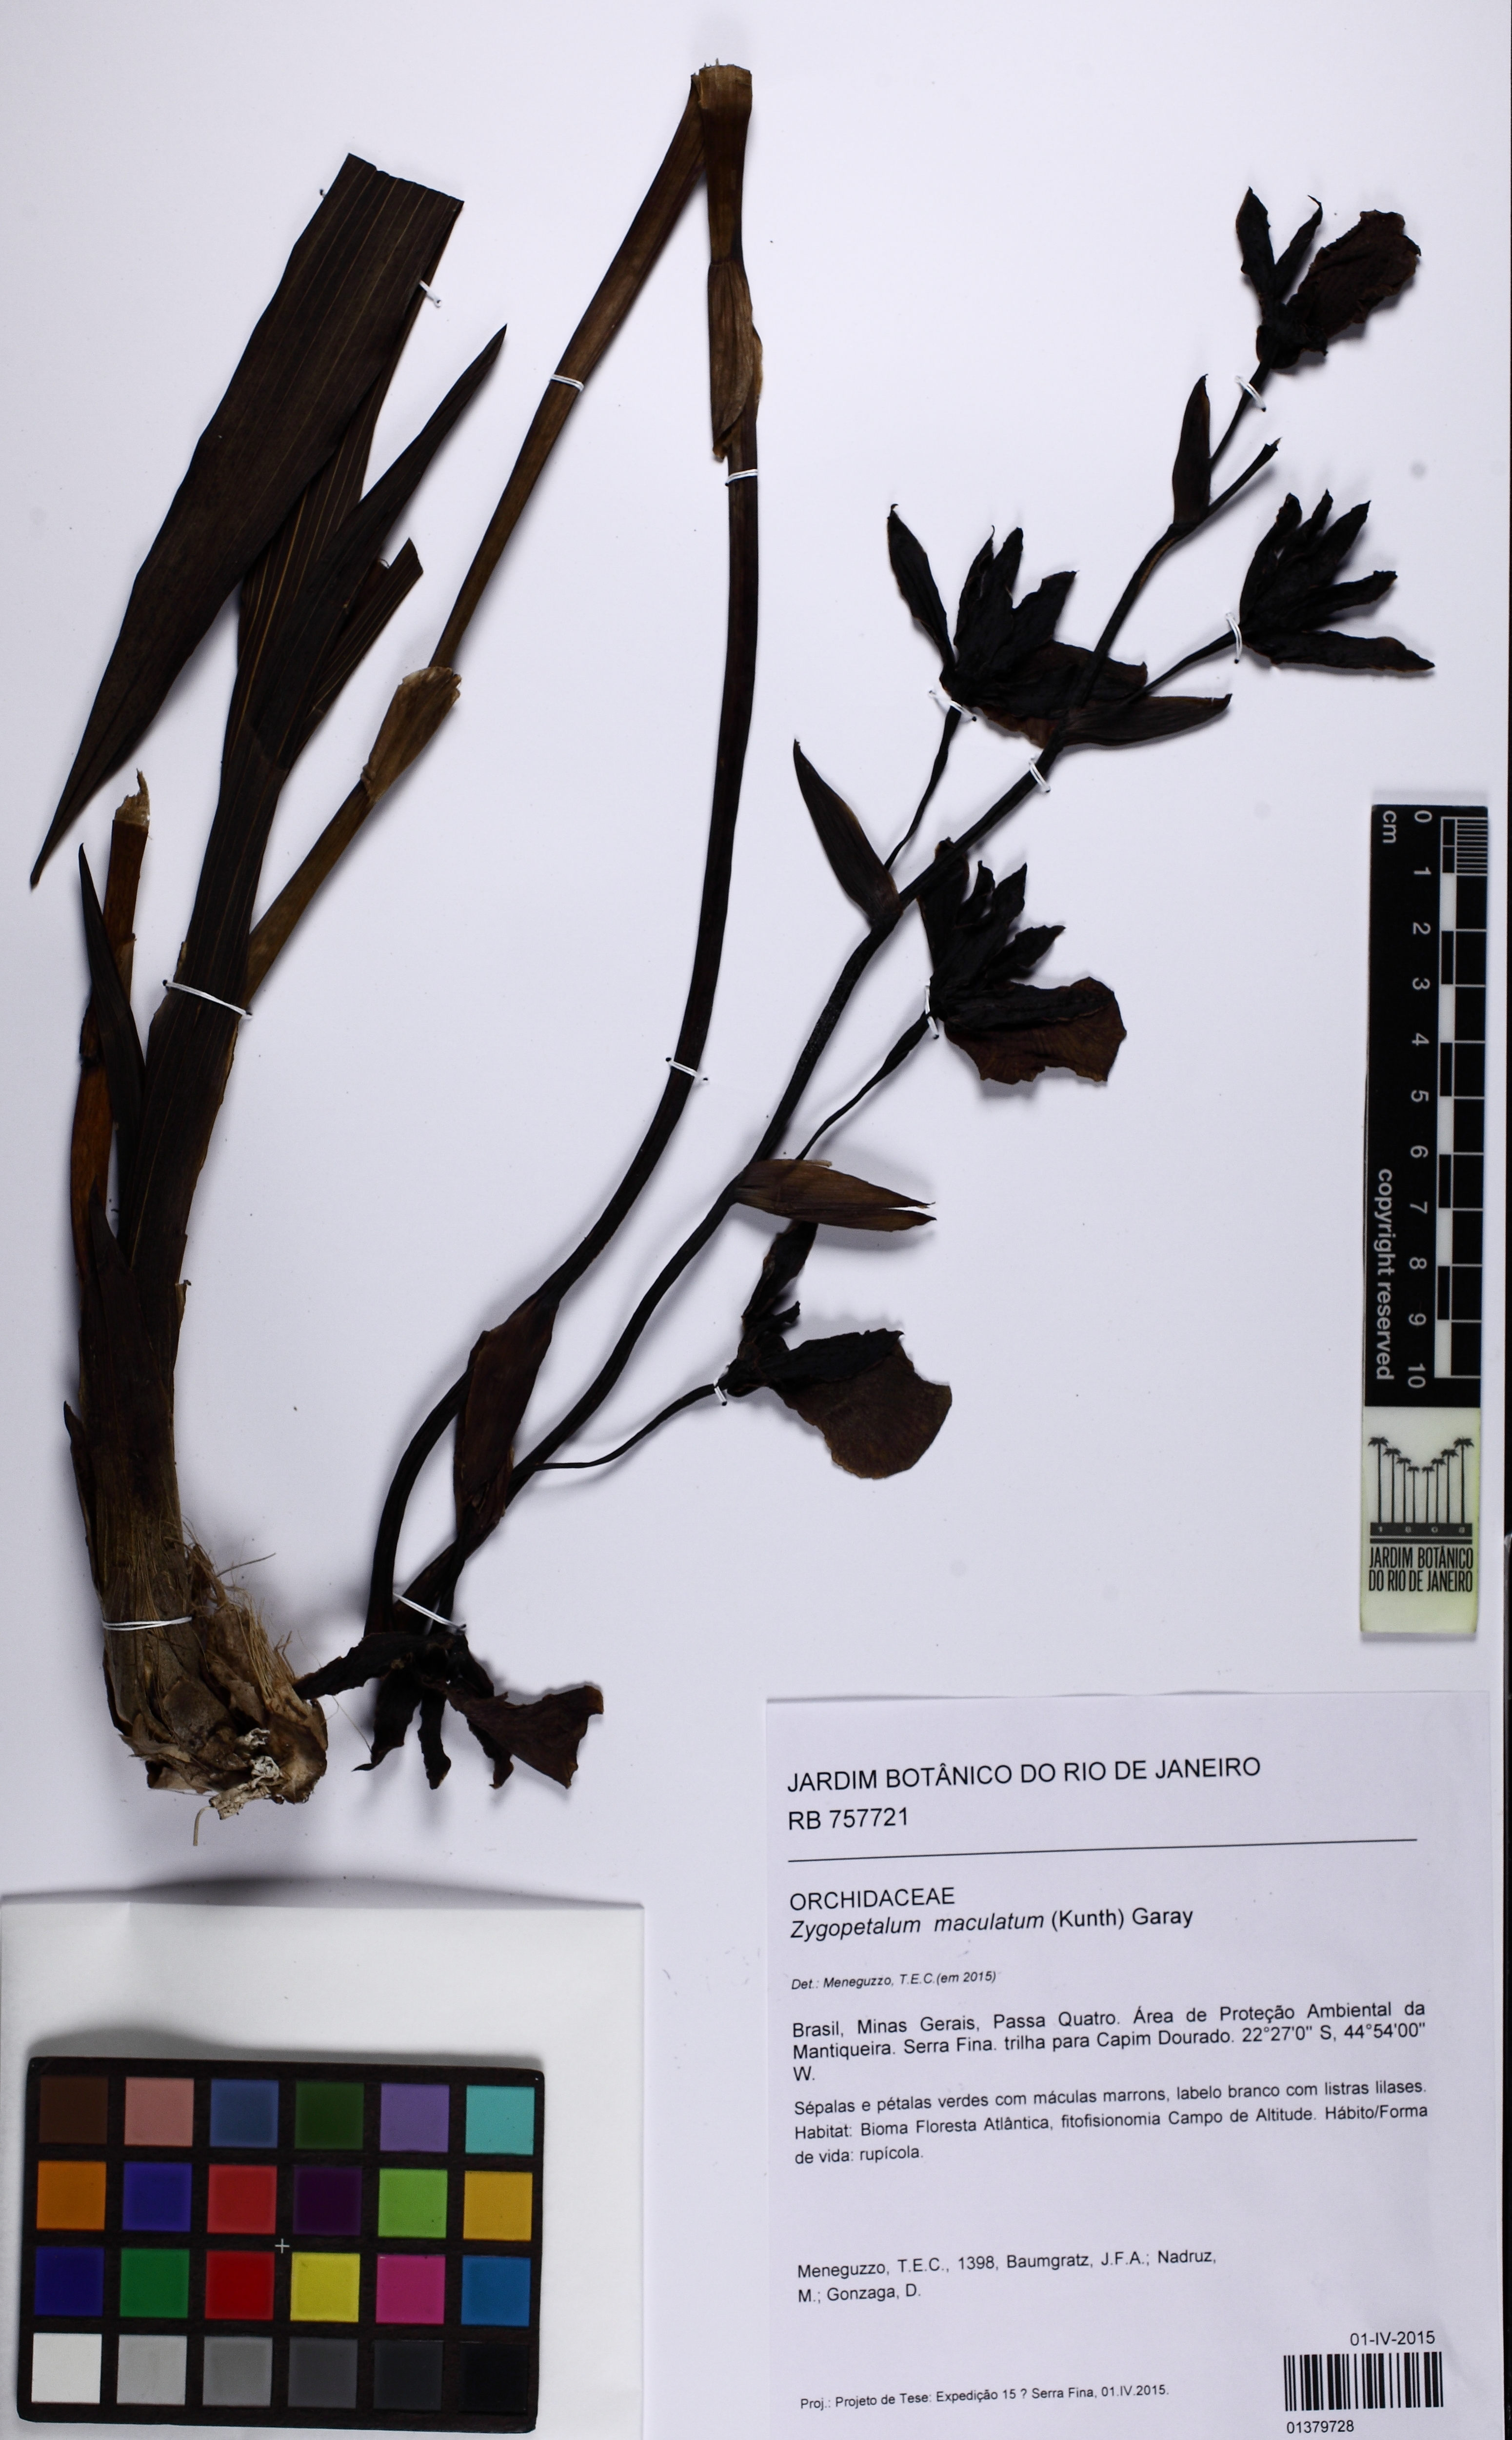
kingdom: Plantae
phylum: Tracheophyta
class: Liliopsida
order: Asparagales
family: Orchidaceae
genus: Zygopetalum
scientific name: Zygopetalum maculatum
